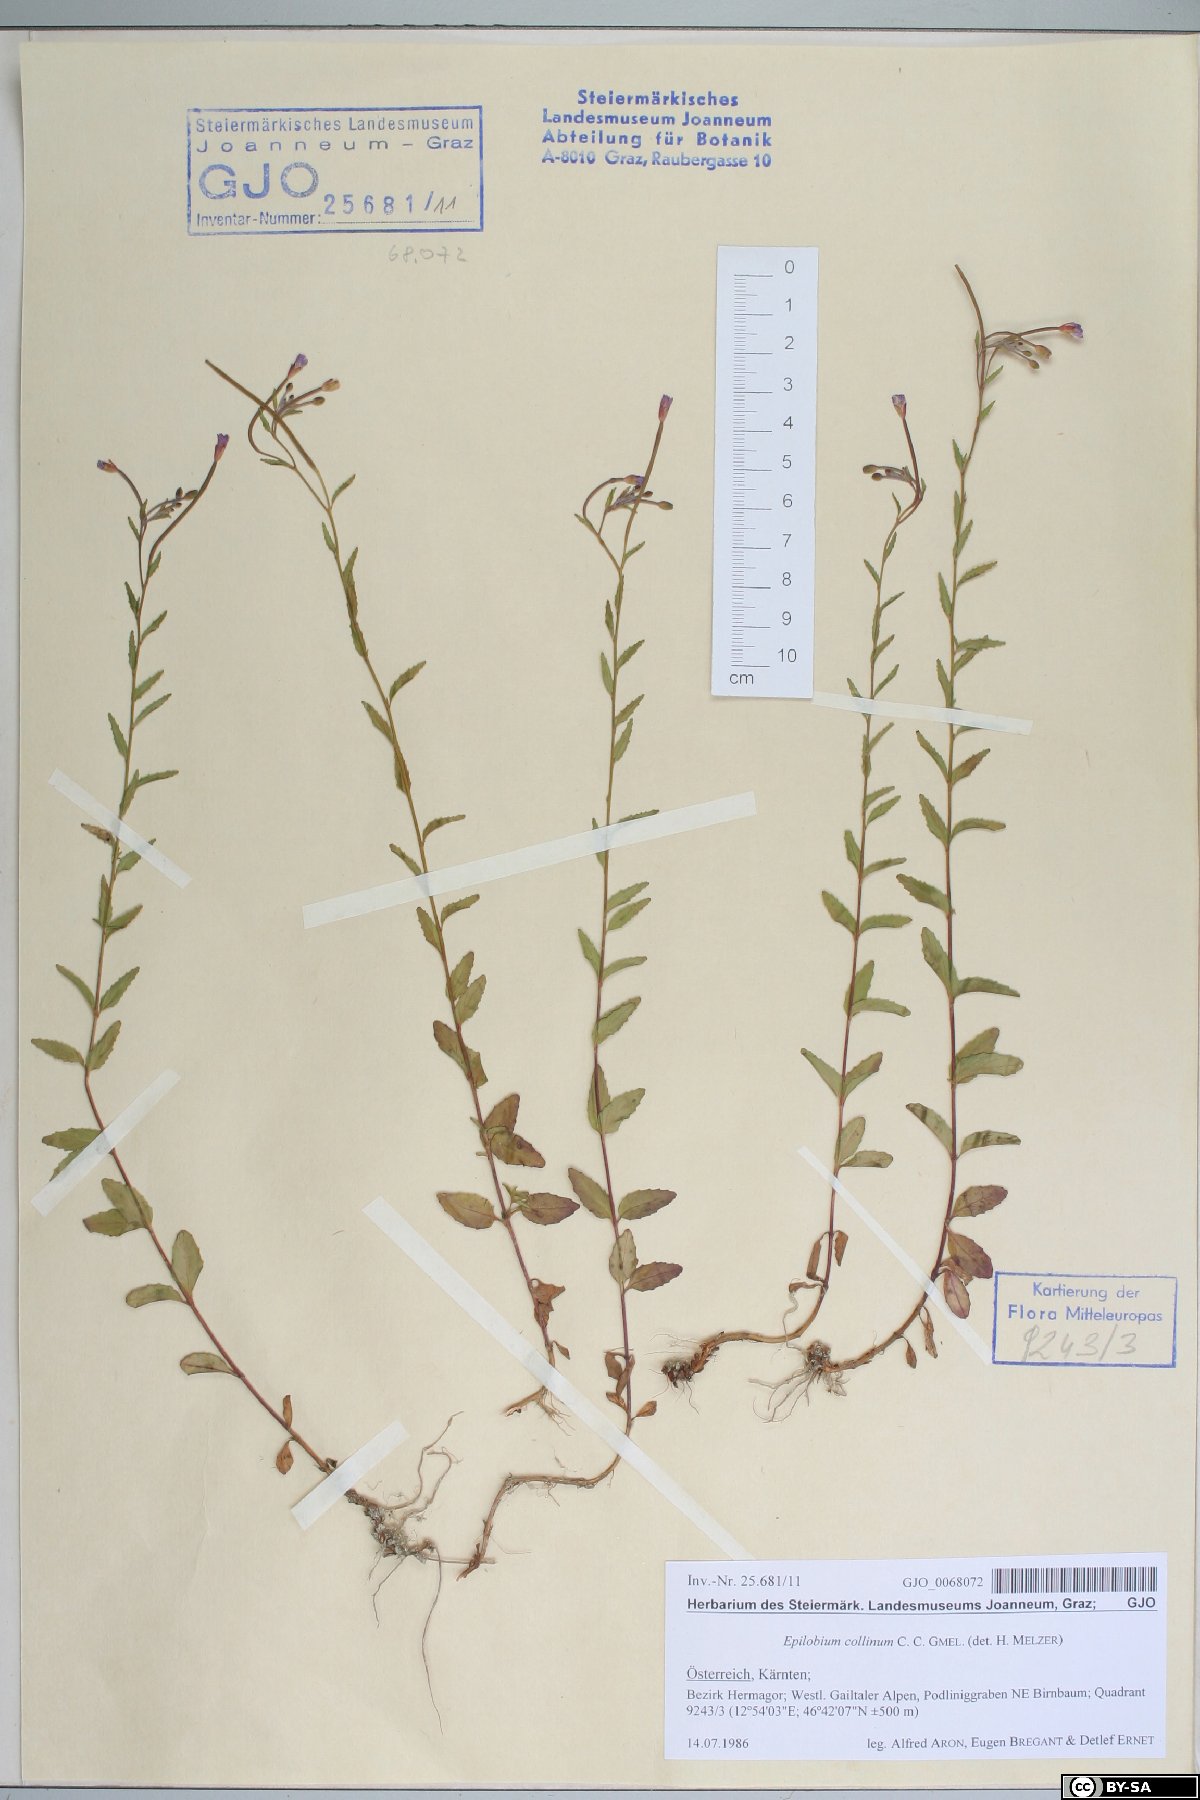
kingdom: Plantae
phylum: Tracheophyta
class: Magnoliopsida
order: Myrtales
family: Onagraceae
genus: Epilobium
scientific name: Epilobium collinum
